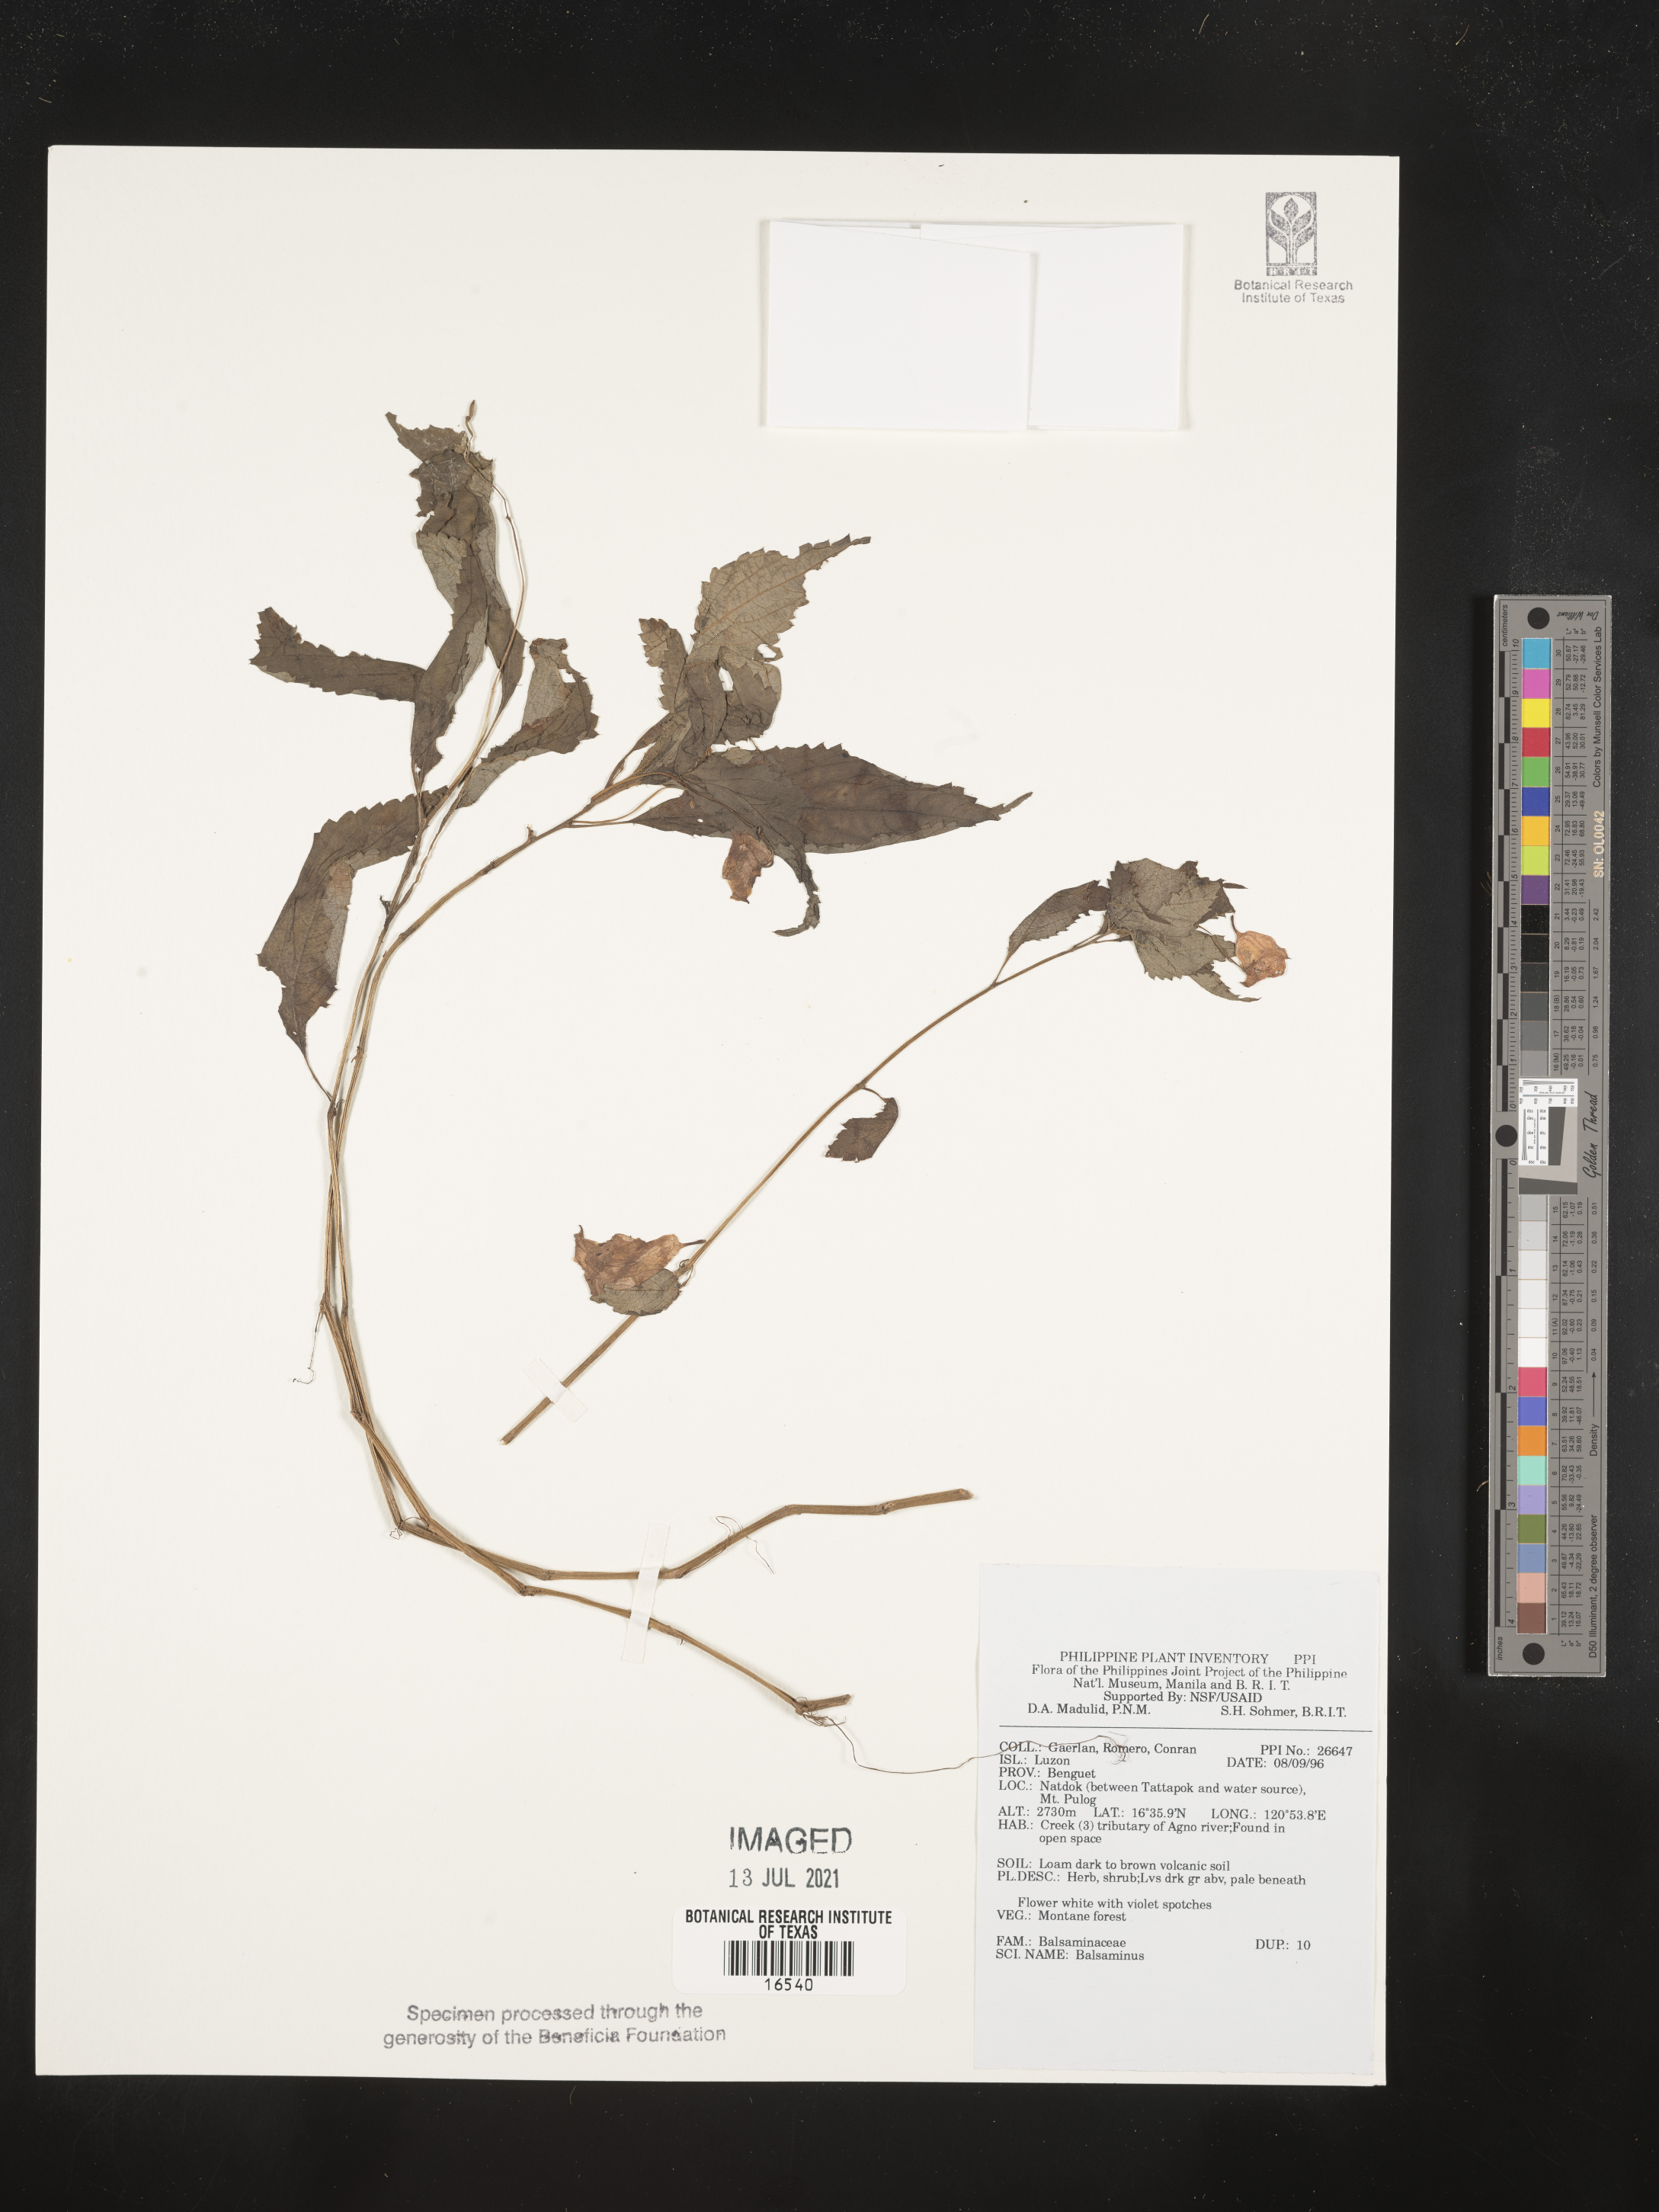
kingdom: Plantae
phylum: Tracheophyta
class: Magnoliopsida
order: Ericales
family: Balsaminaceae
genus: Impatiens
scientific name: Impatiens
